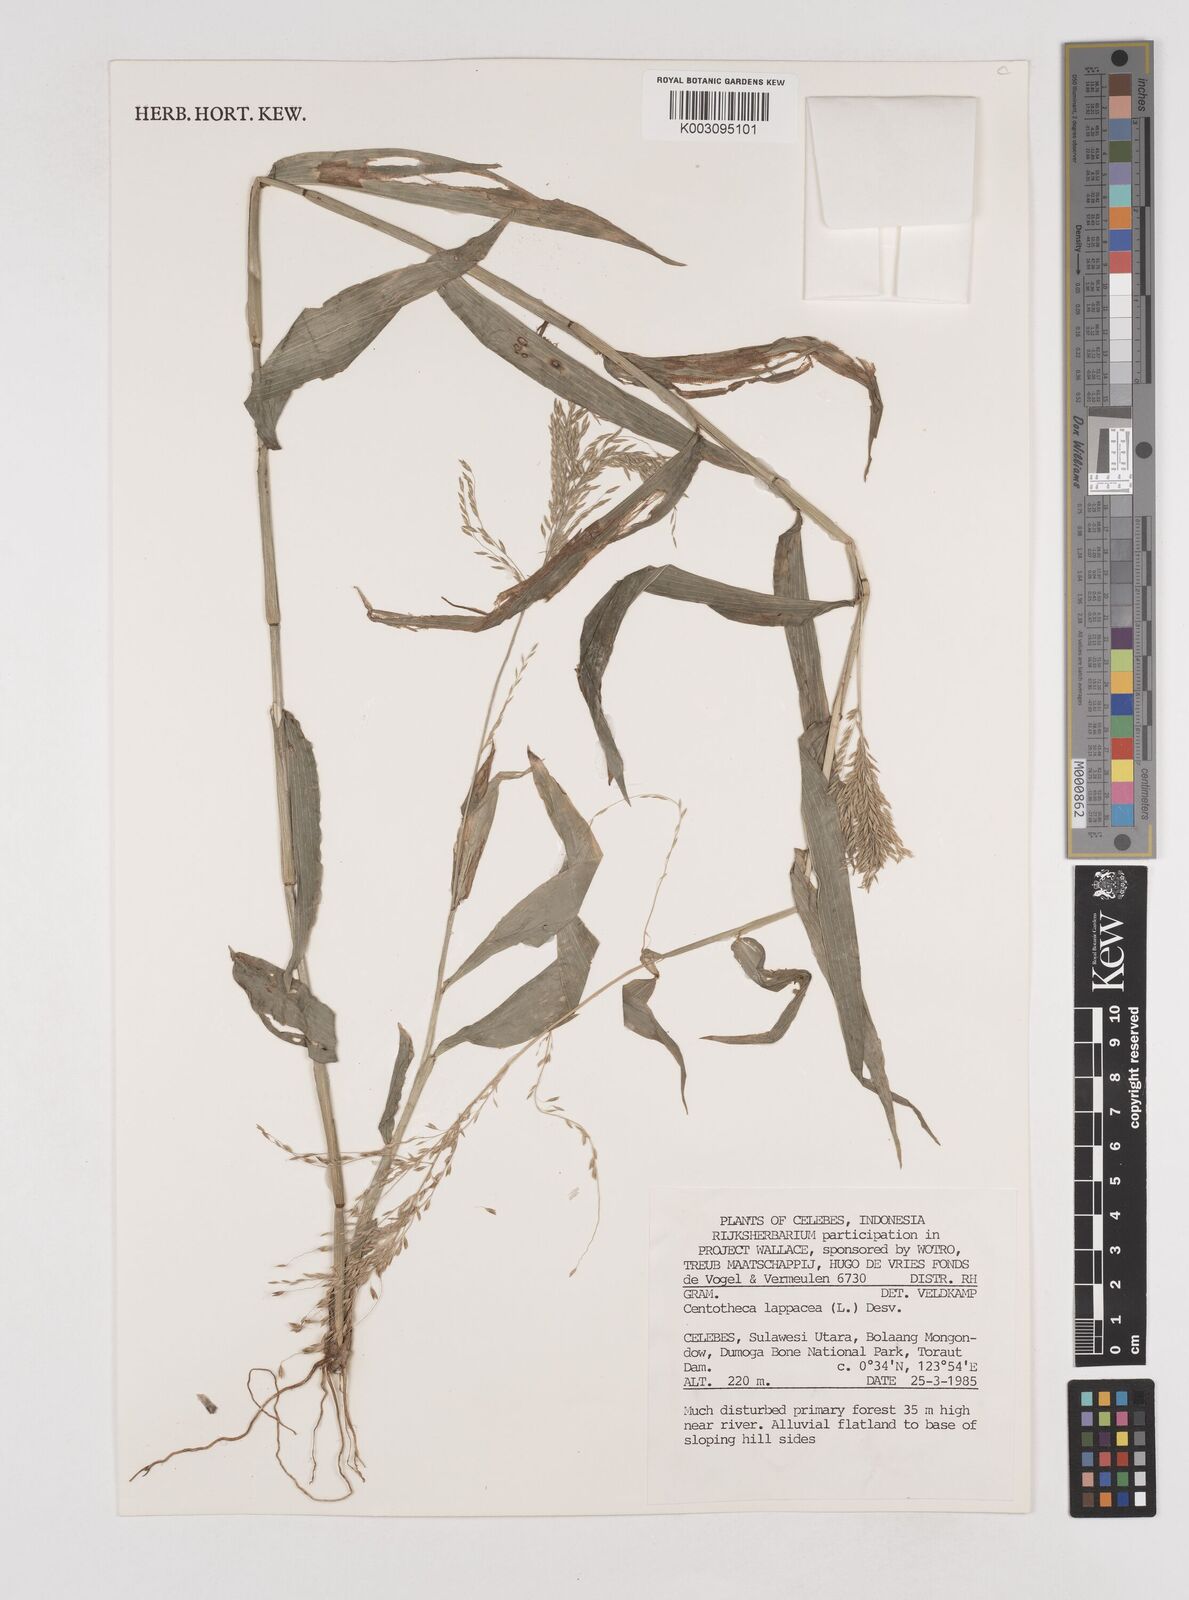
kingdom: Plantae
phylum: Tracheophyta
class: Liliopsida
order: Poales
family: Poaceae
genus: Centotheca
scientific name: Centotheca lappacea
